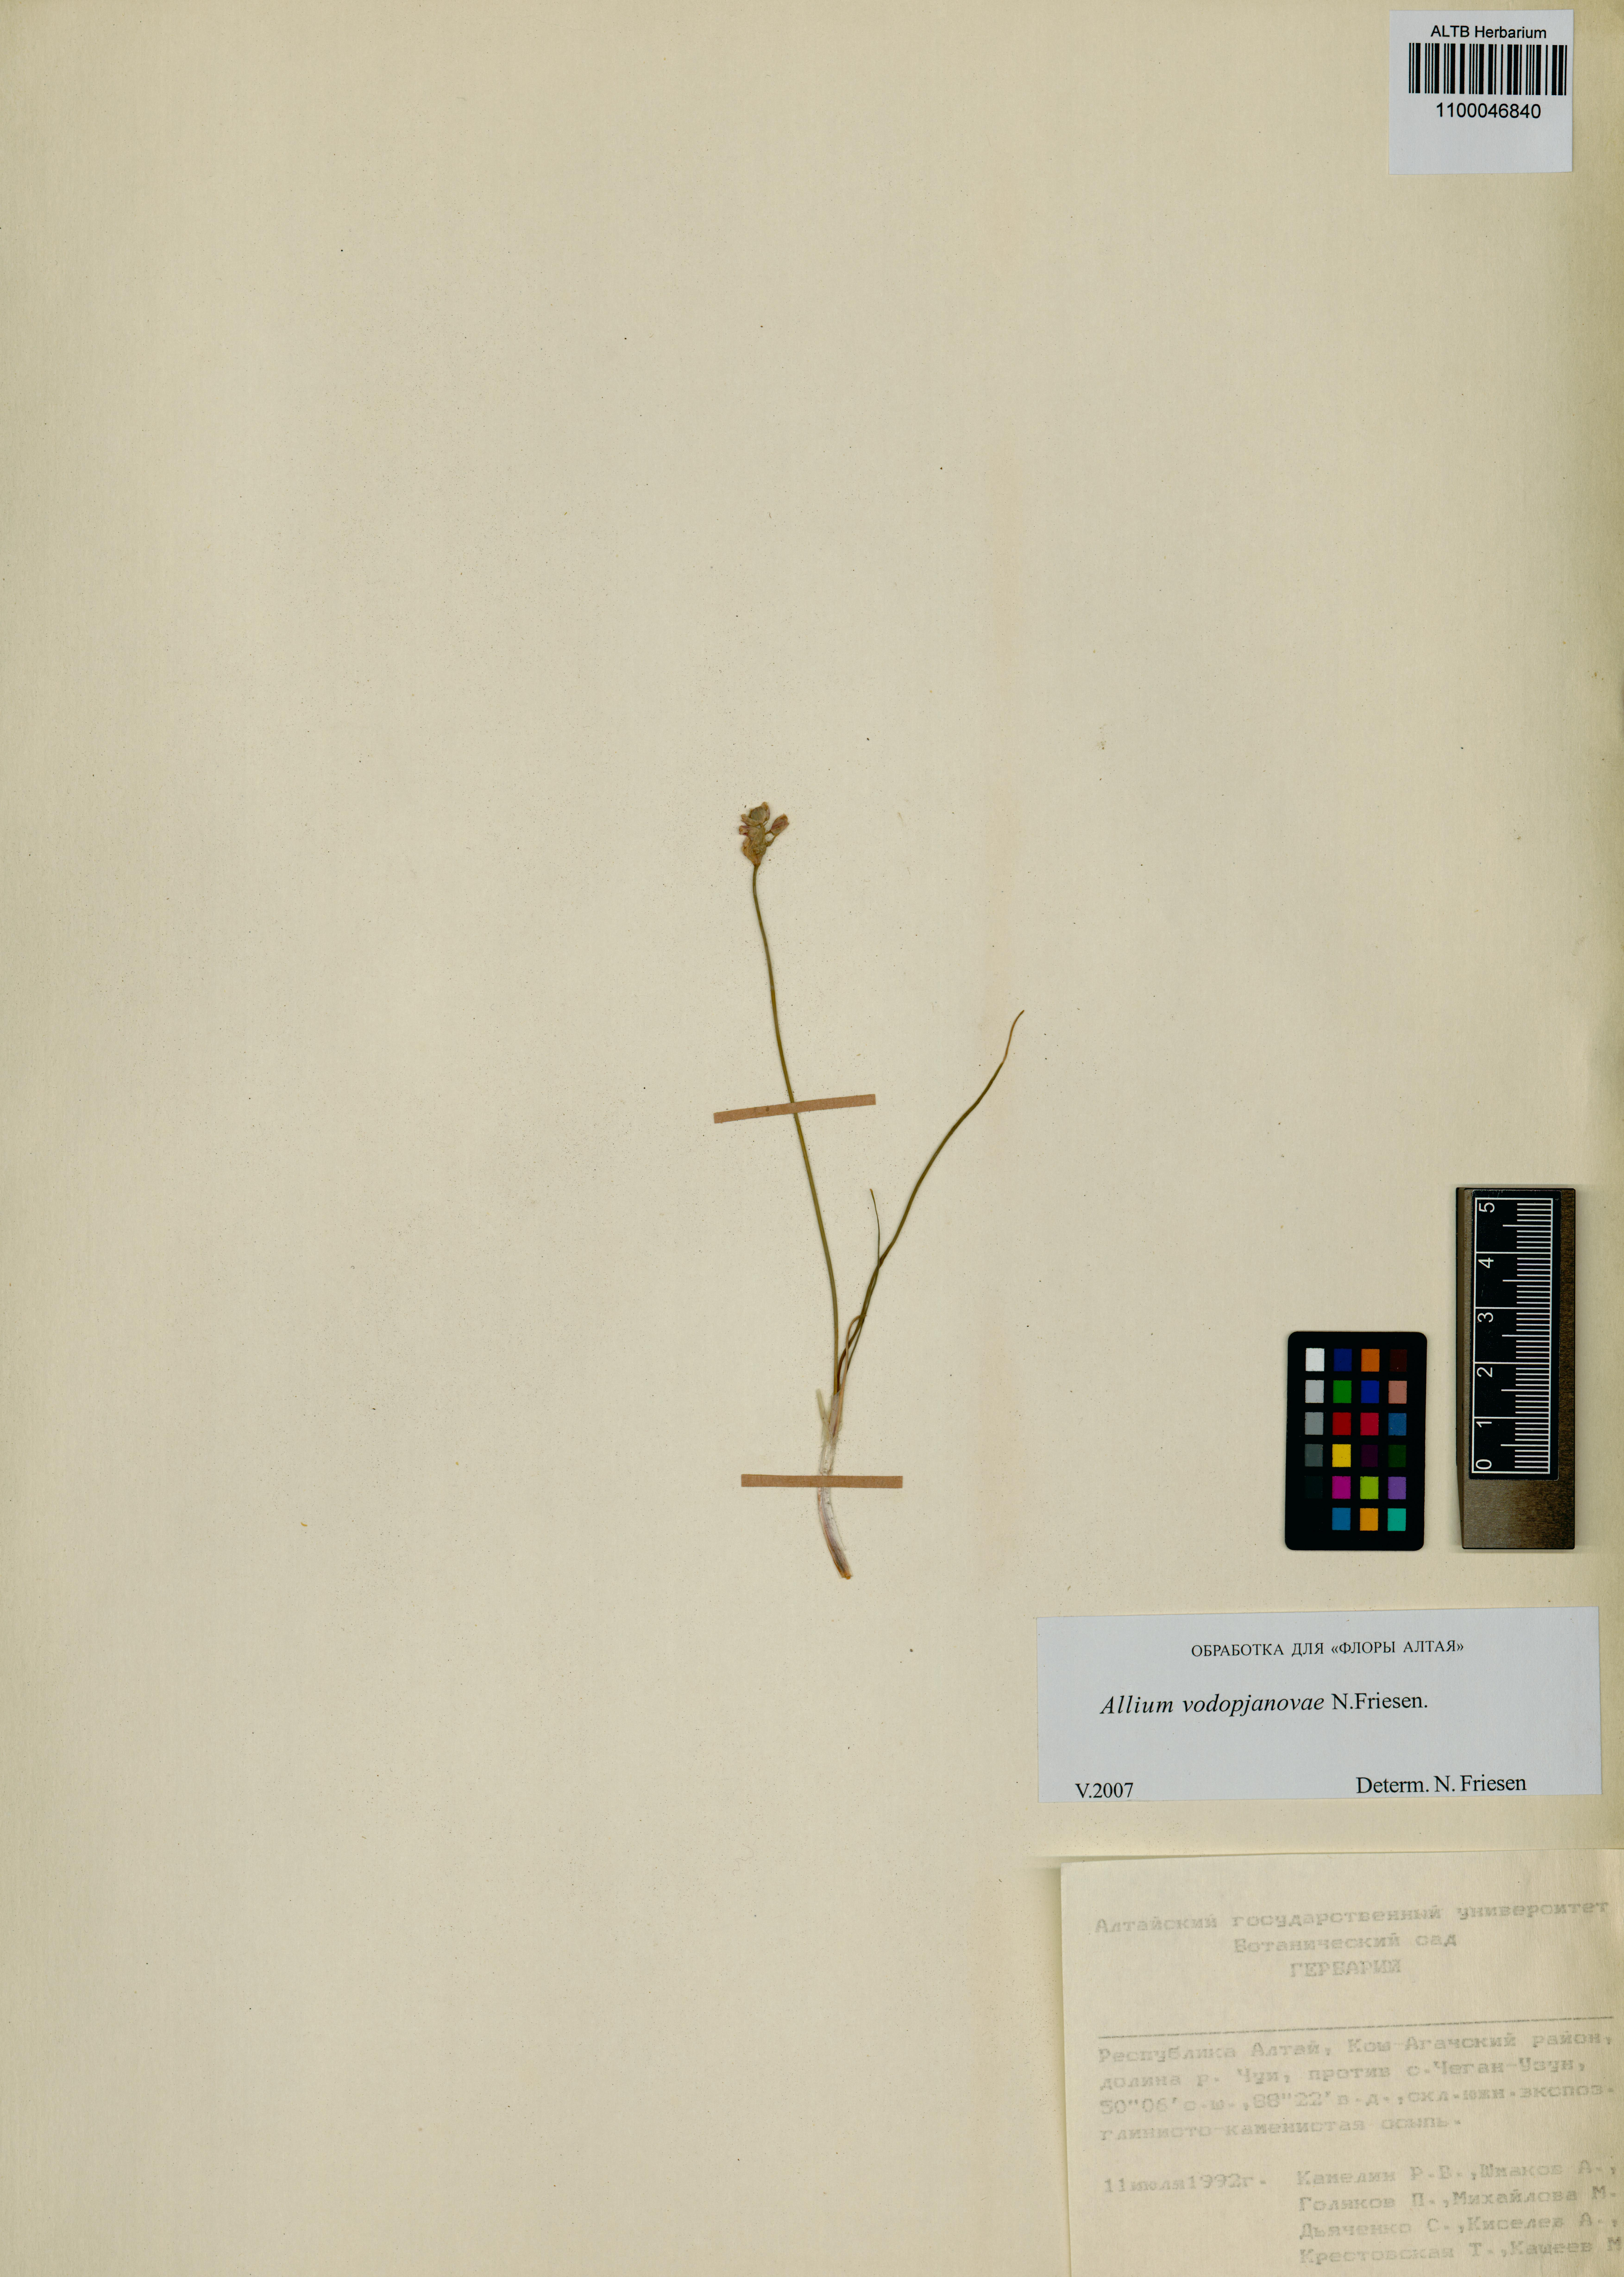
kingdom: Plantae
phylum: Tracheophyta
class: Liliopsida
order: Asparagales
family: Amaryllidaceae
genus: Allium
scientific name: Allium vodopjanovae
